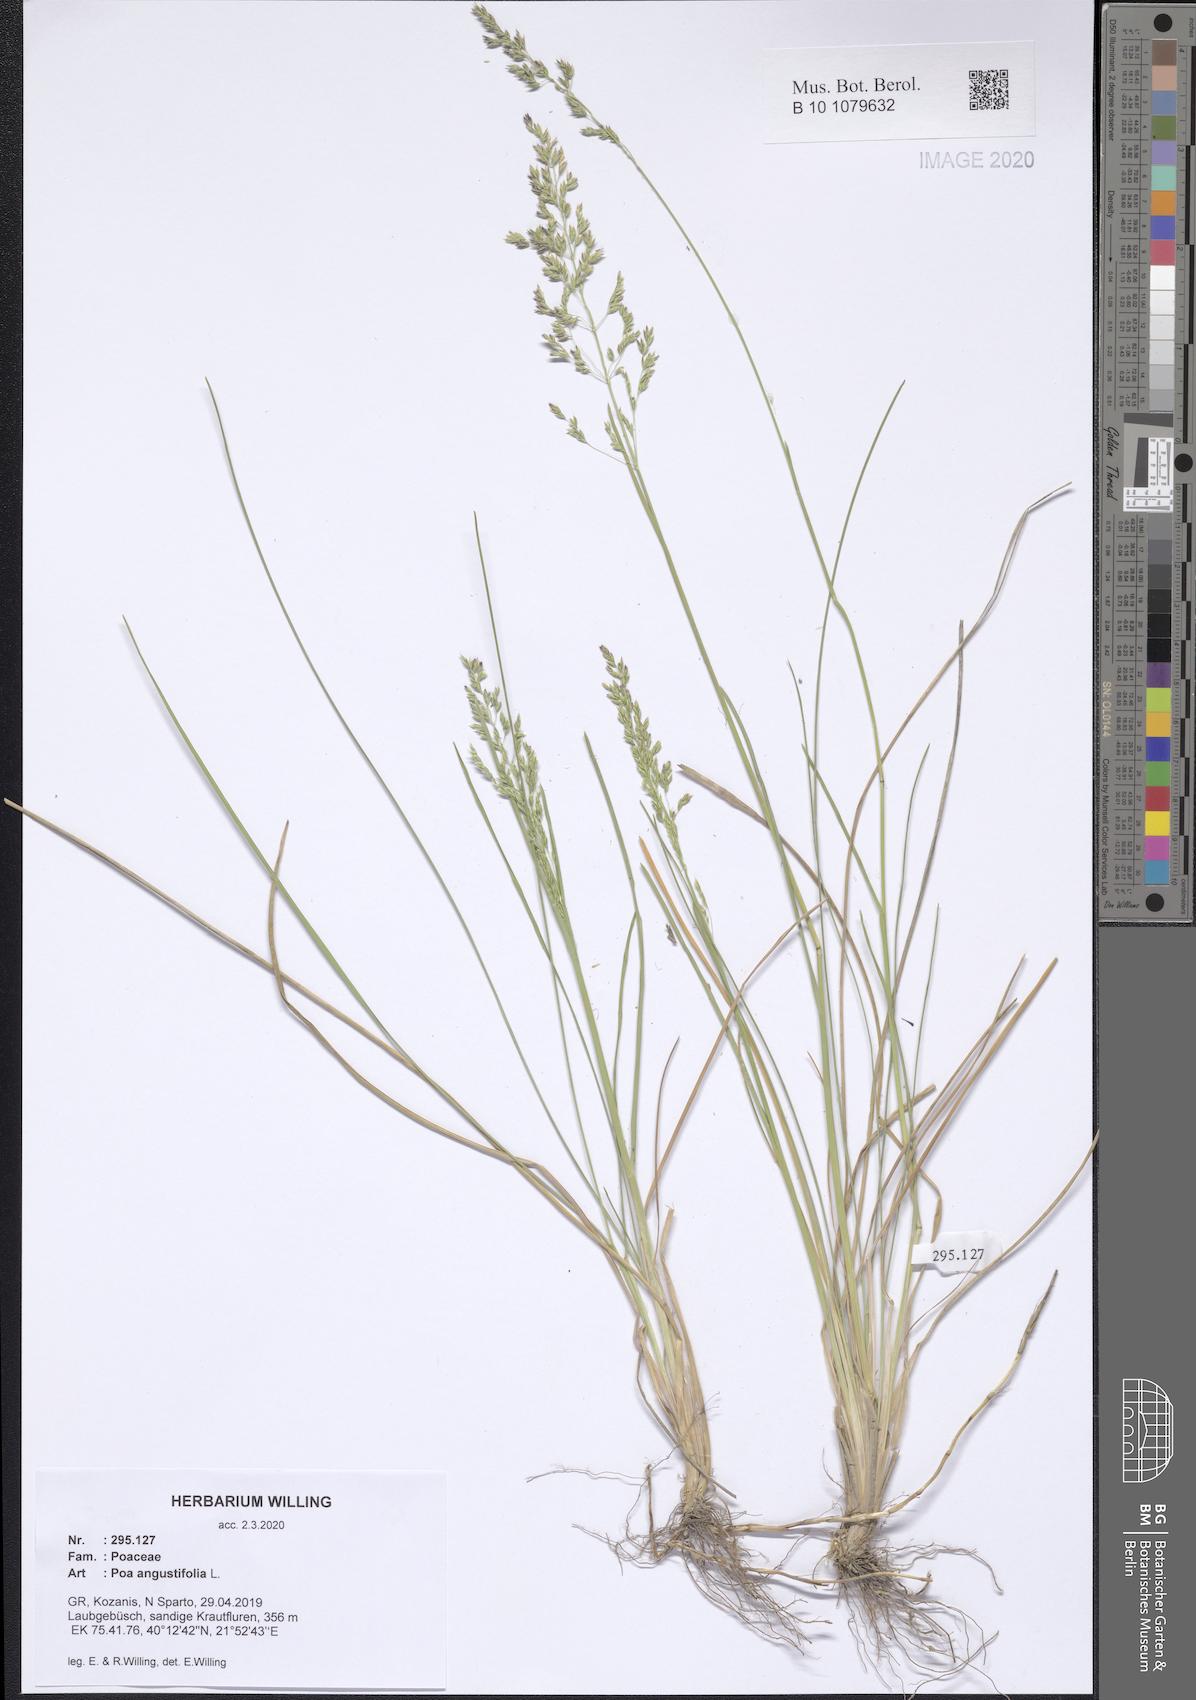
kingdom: Plantae
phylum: Tracheophyta
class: Liliopsida
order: Poales
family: Poaceae
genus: Poa
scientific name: Poa angustifolia
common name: Narrow-leaved meadow-grass
